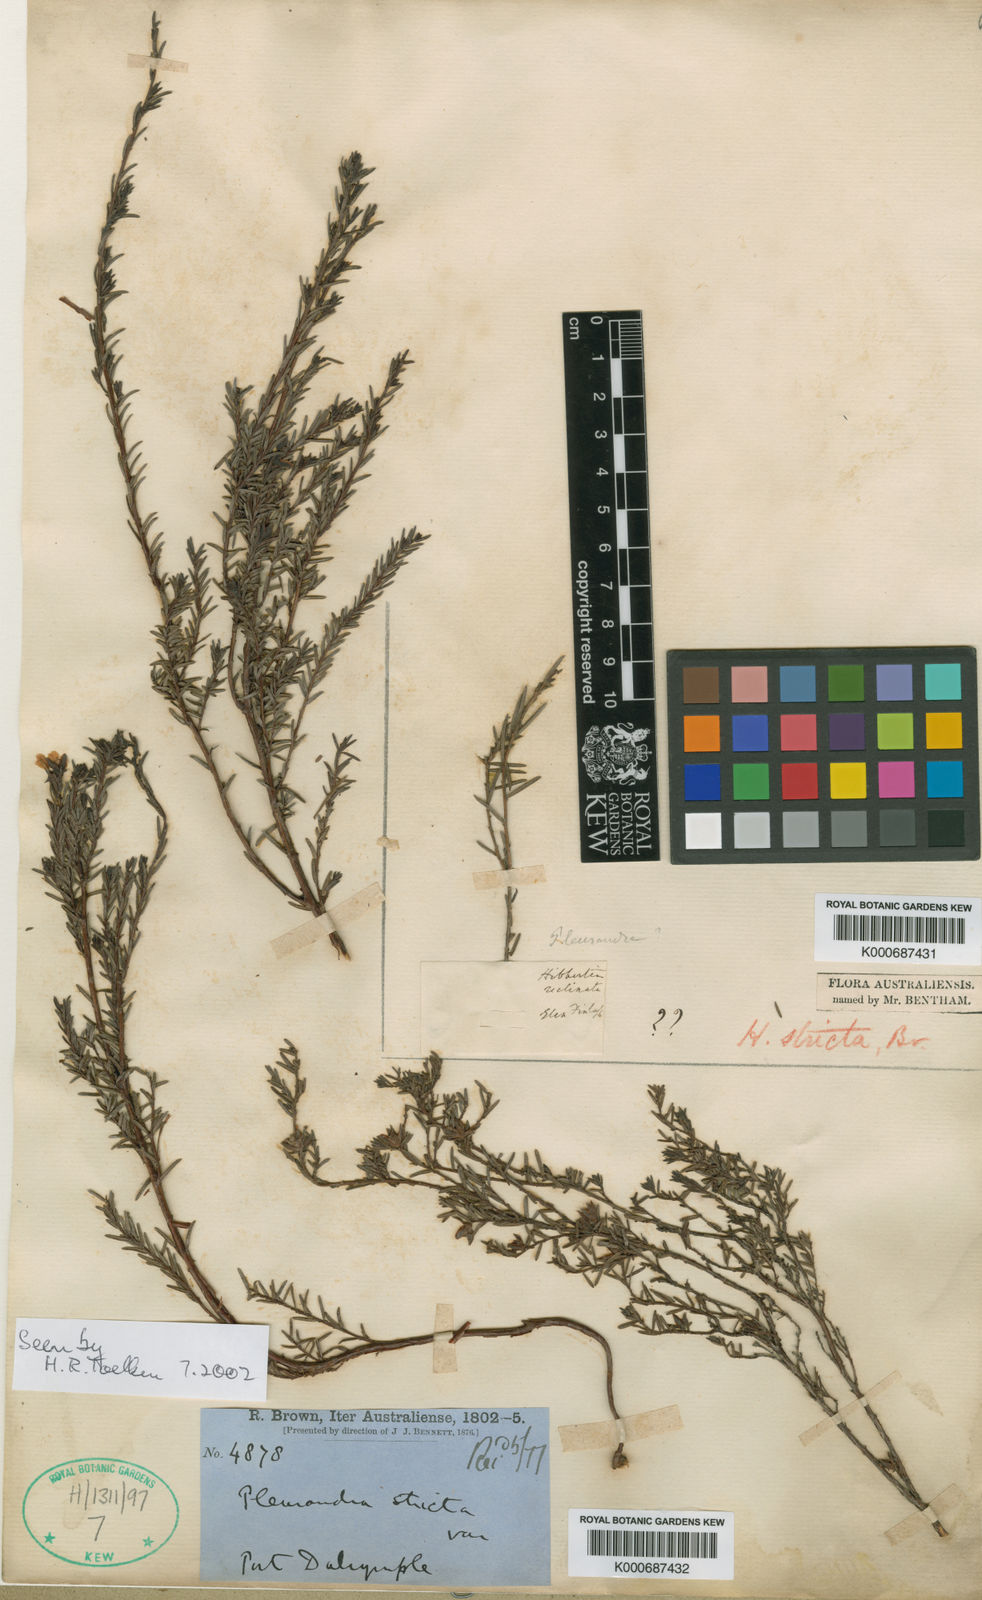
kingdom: Plantae
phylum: Tracheophyta
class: Magnoliopsida
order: Dilleniales
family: Dilleniaceae
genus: Hibbertia
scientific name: Hibbertia
